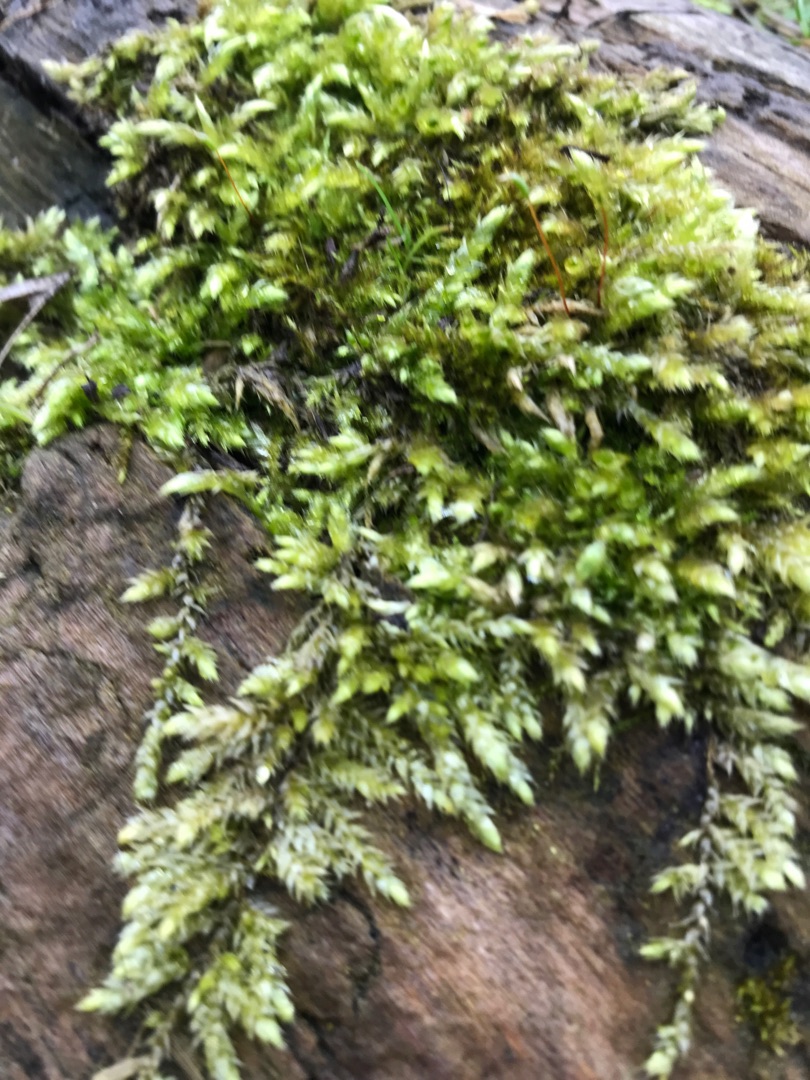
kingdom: Plantae
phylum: Bryophyta
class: Bryopsida
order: Hypnales
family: Brachytheciaceae
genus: Brachythecium
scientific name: Brachythecium rutabulum
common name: Almindelig kortkapsel
